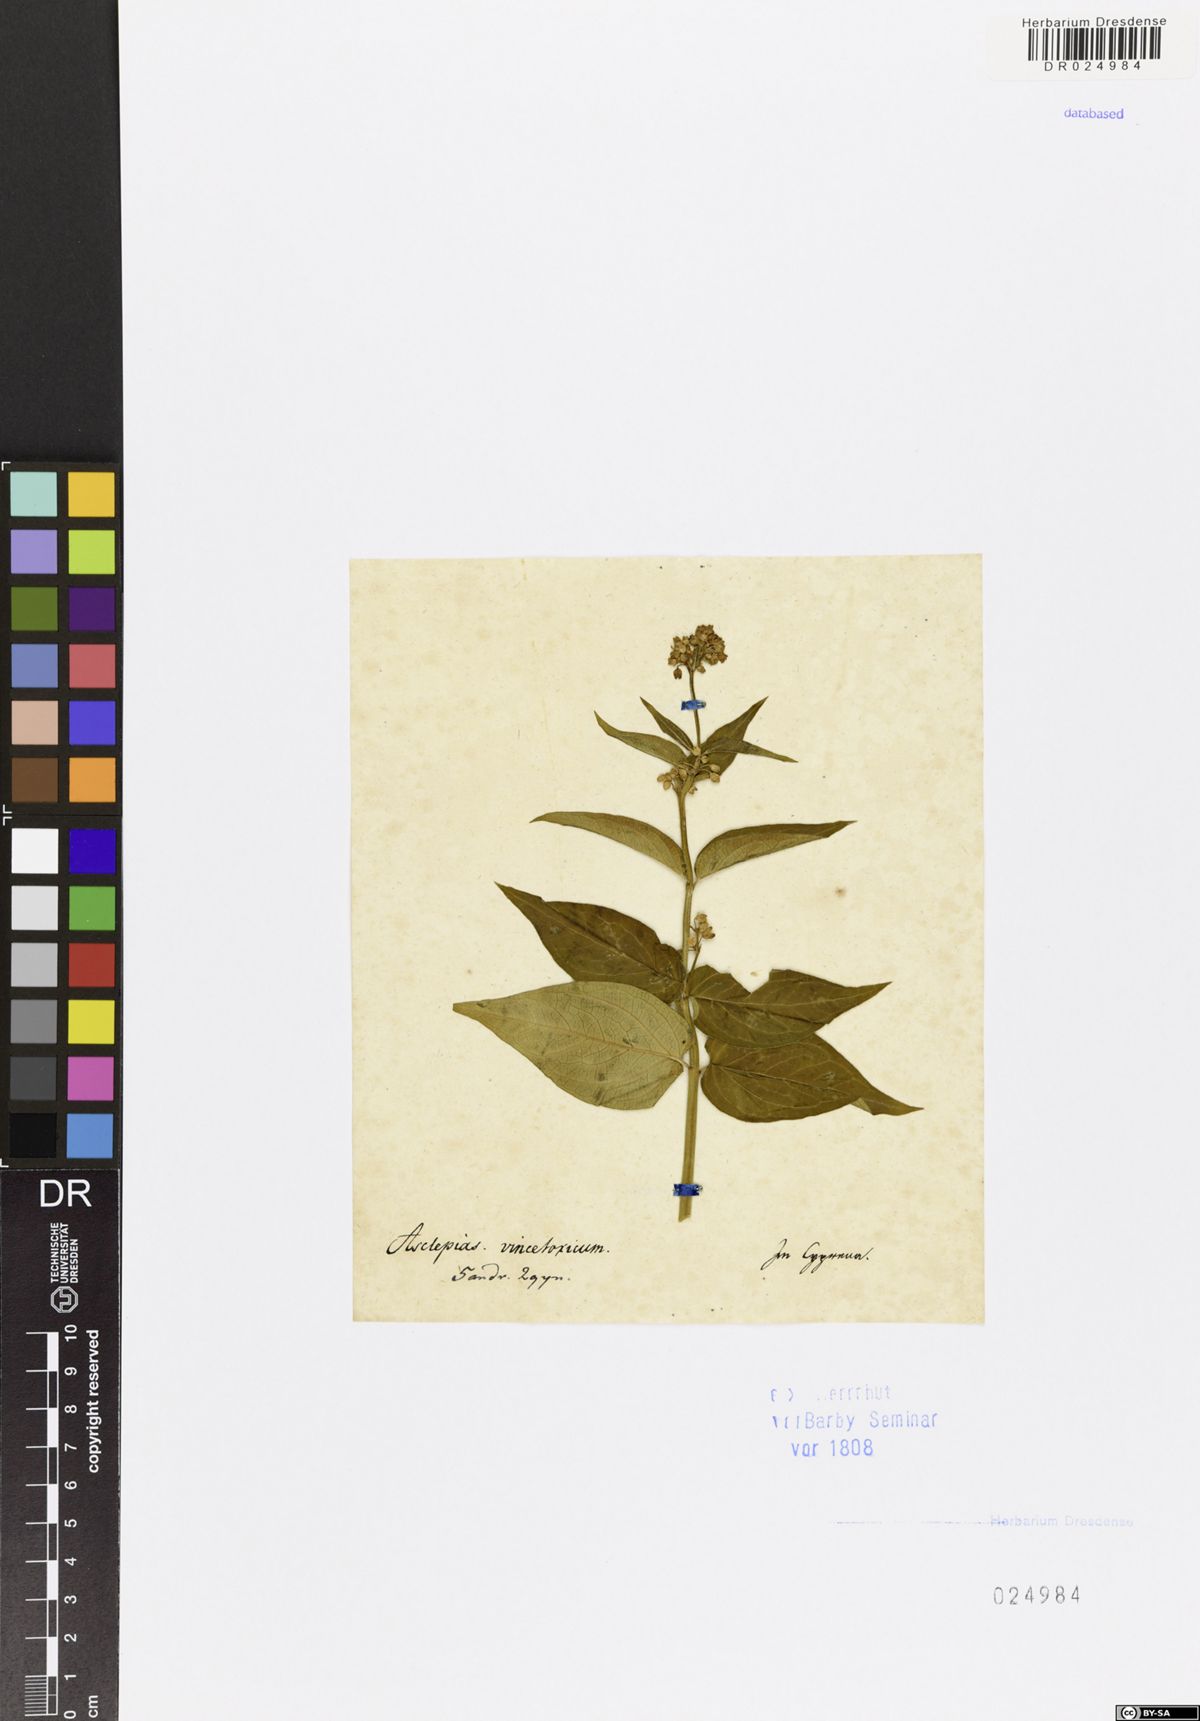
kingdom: Plantae
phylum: Tracheophyta
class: Magnoliopsida
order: Gentianales
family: Apocynaceae
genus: Vincetoxicum
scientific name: Vincetoxicum hirundinaria
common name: White swallowwort
